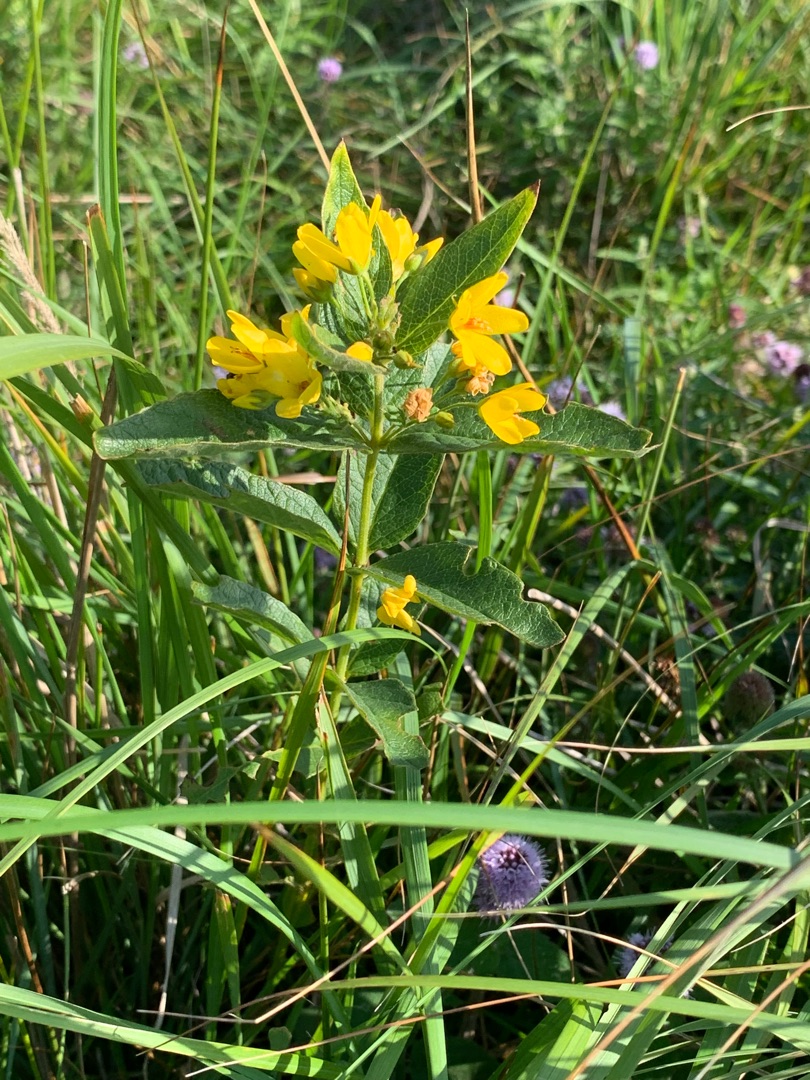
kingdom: Plantae
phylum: Tracheophyta
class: Magnoliopsida
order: Ericales
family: Primulaceae
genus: Lysimachia
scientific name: Lysimachia vulgaris
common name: Almindelig fredløs
